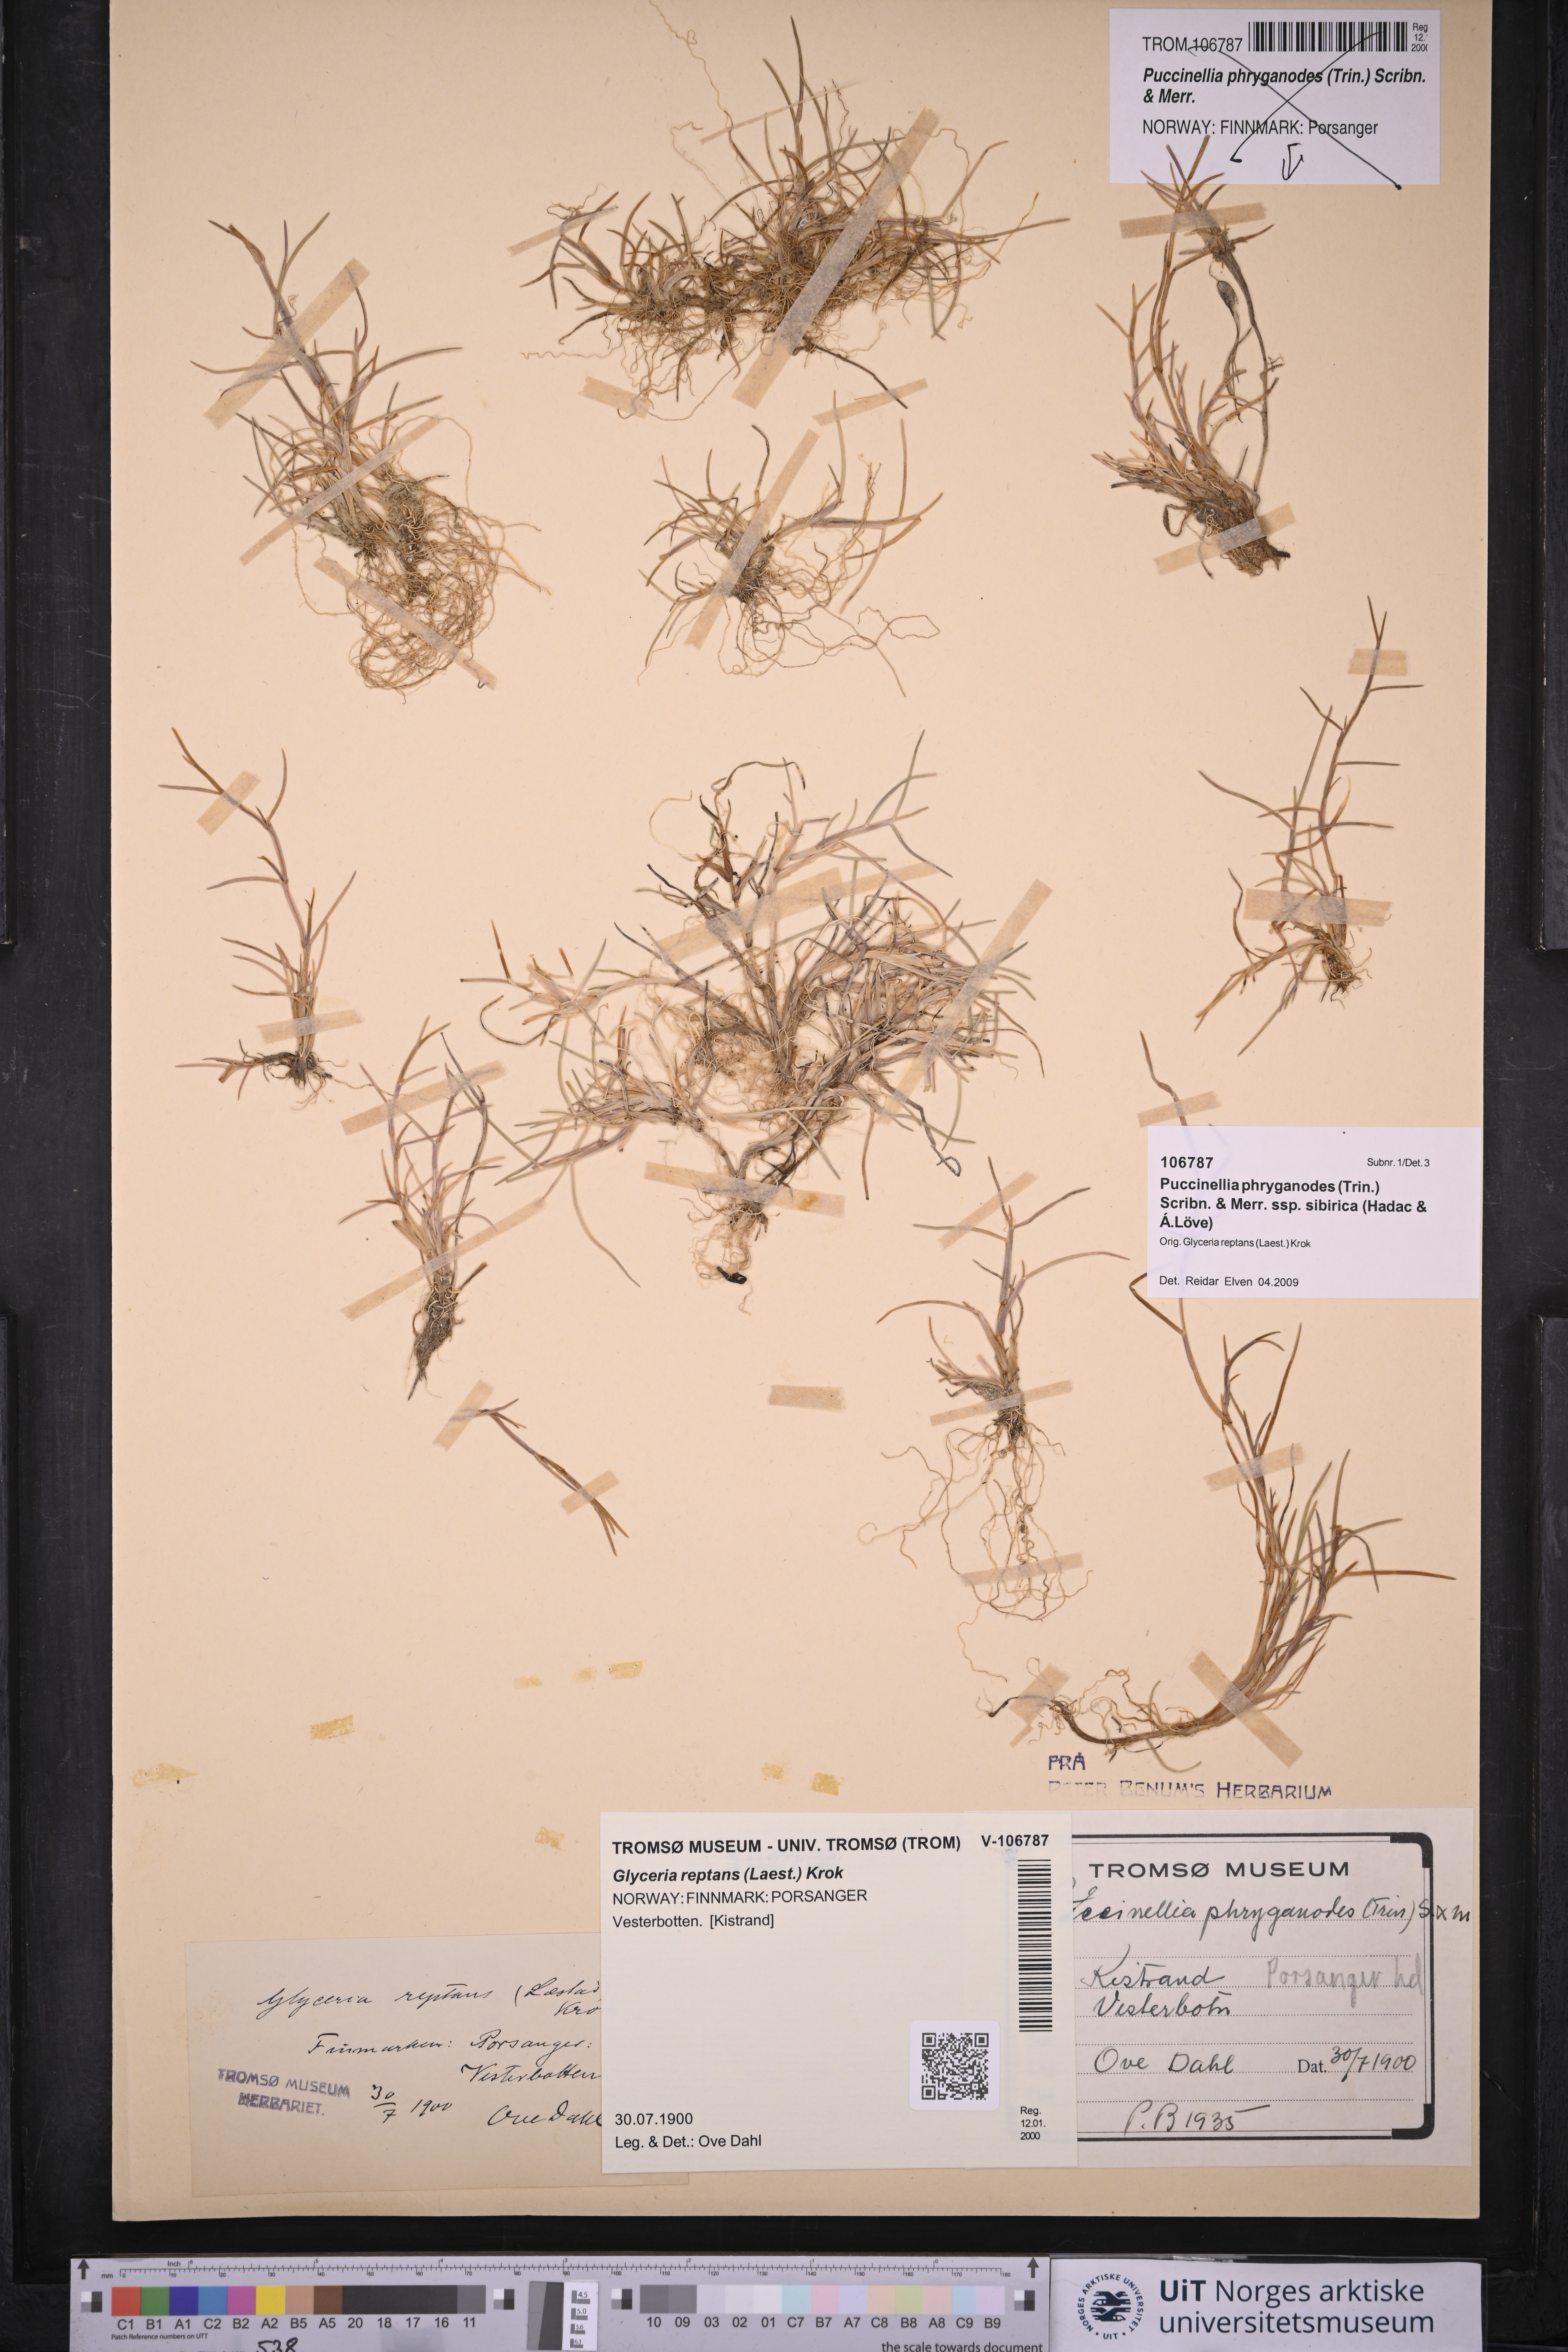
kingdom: Plantae
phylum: Tracheophyta
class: Liliopsida
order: Poales
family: Poaceae
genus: Puccinellia
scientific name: Puccinellia phryganodes
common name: Creeping alkaligrass
